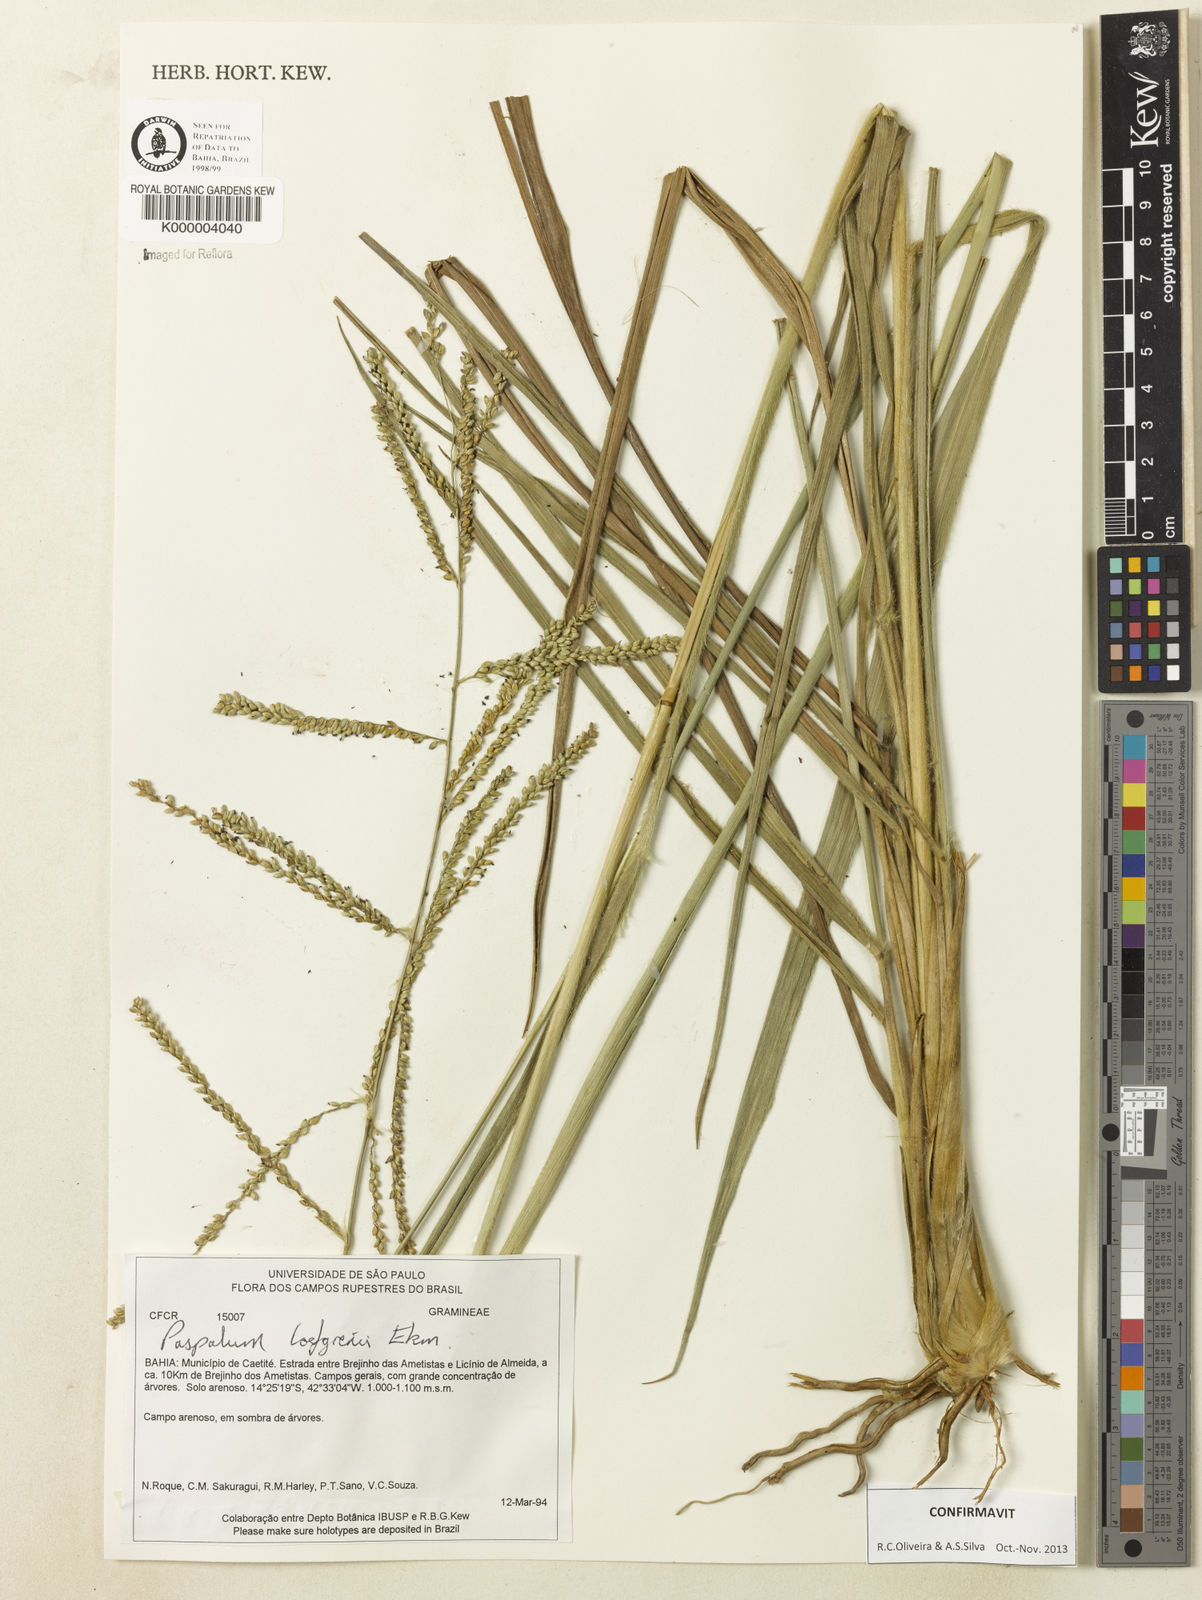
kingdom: Plantae
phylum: Tracheophyta
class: Liliopsida
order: Poales
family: Poaceae
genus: Paspalum
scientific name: Paspalum loefgrenii
